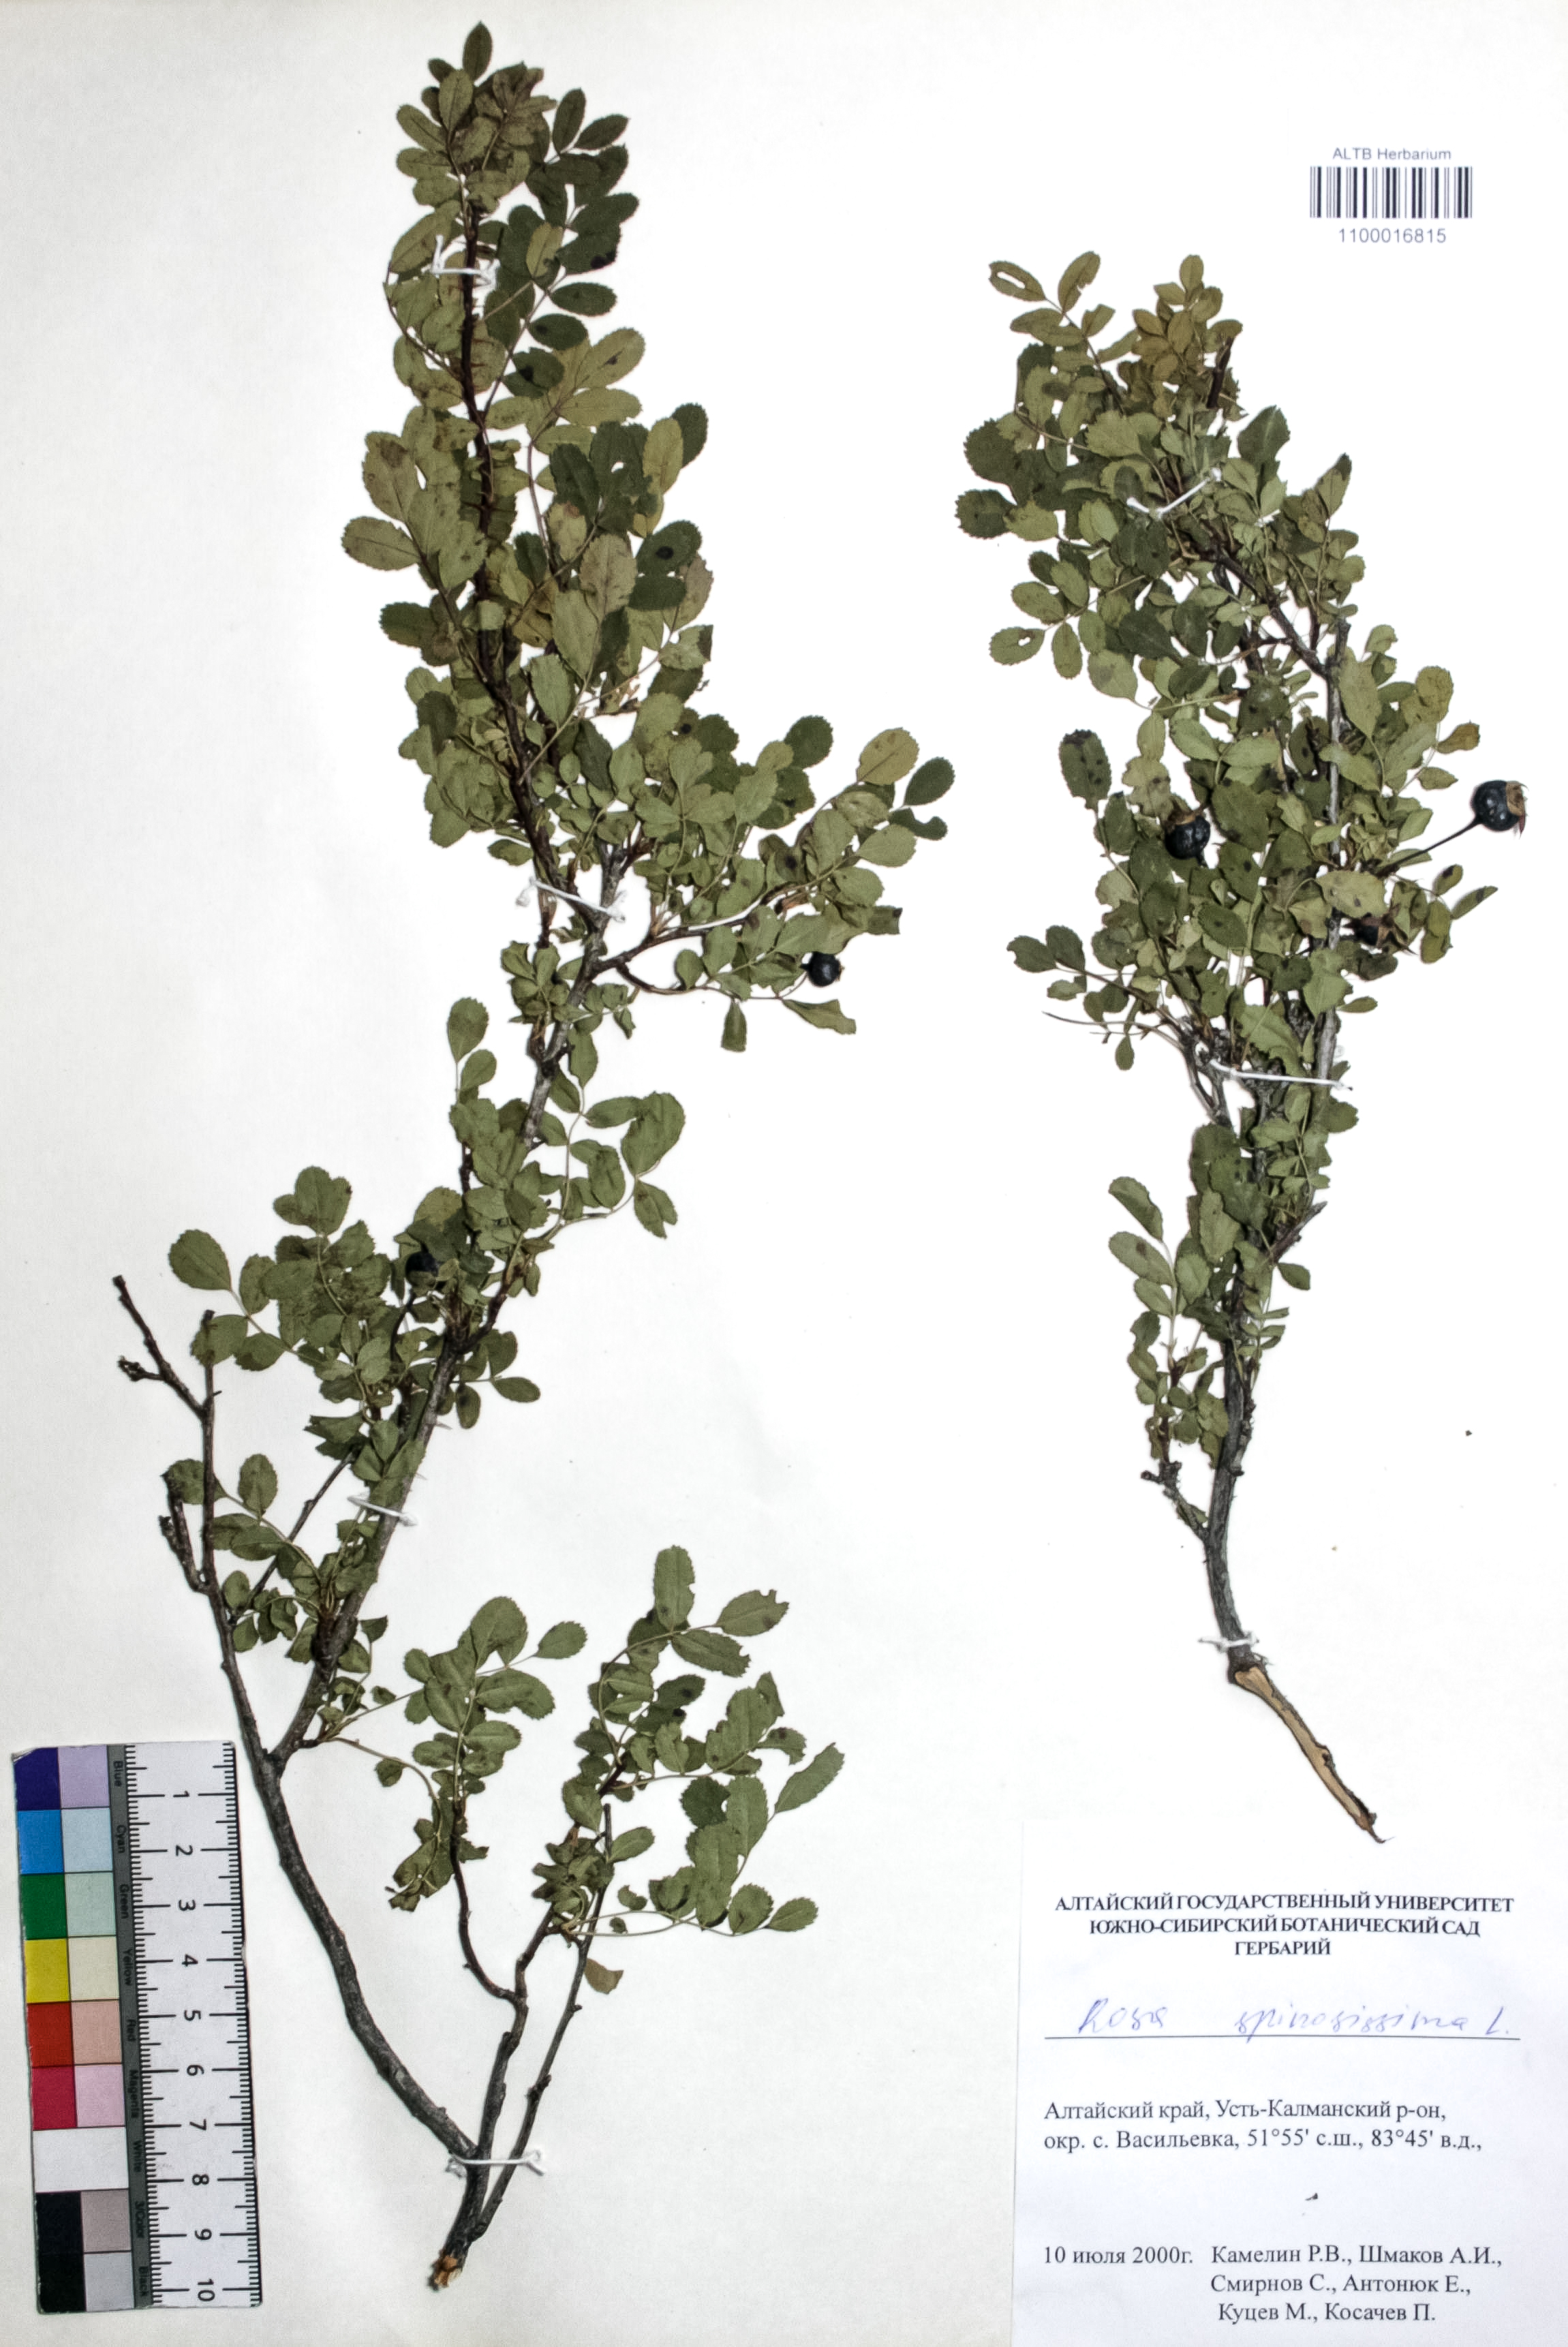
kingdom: Plantae
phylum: Tracheophyta
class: Magnoliopsida
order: Rosales
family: Rosaceae
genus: Rosa
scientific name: Rosa spinosissima
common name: Burnet rose
